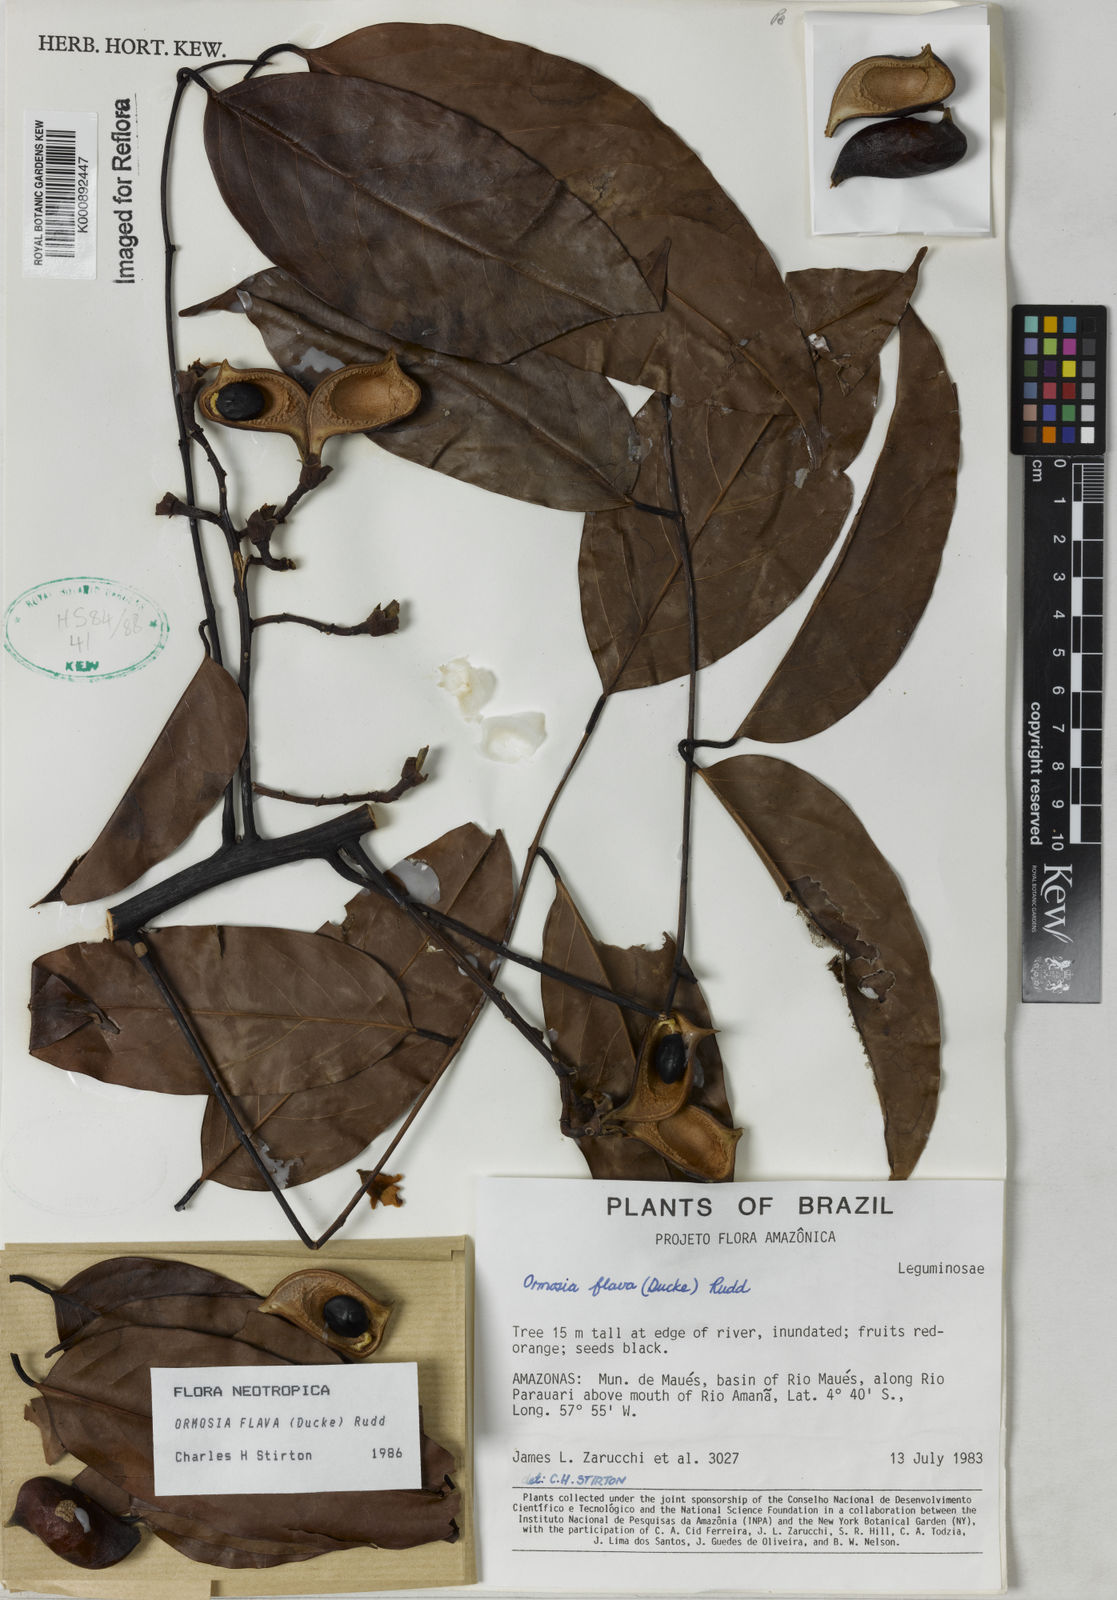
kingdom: Plantae
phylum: Tracheophyta
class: Magnoliopsida
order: Fabales
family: Fabaceae
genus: Ormosia
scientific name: Ormosia flava
